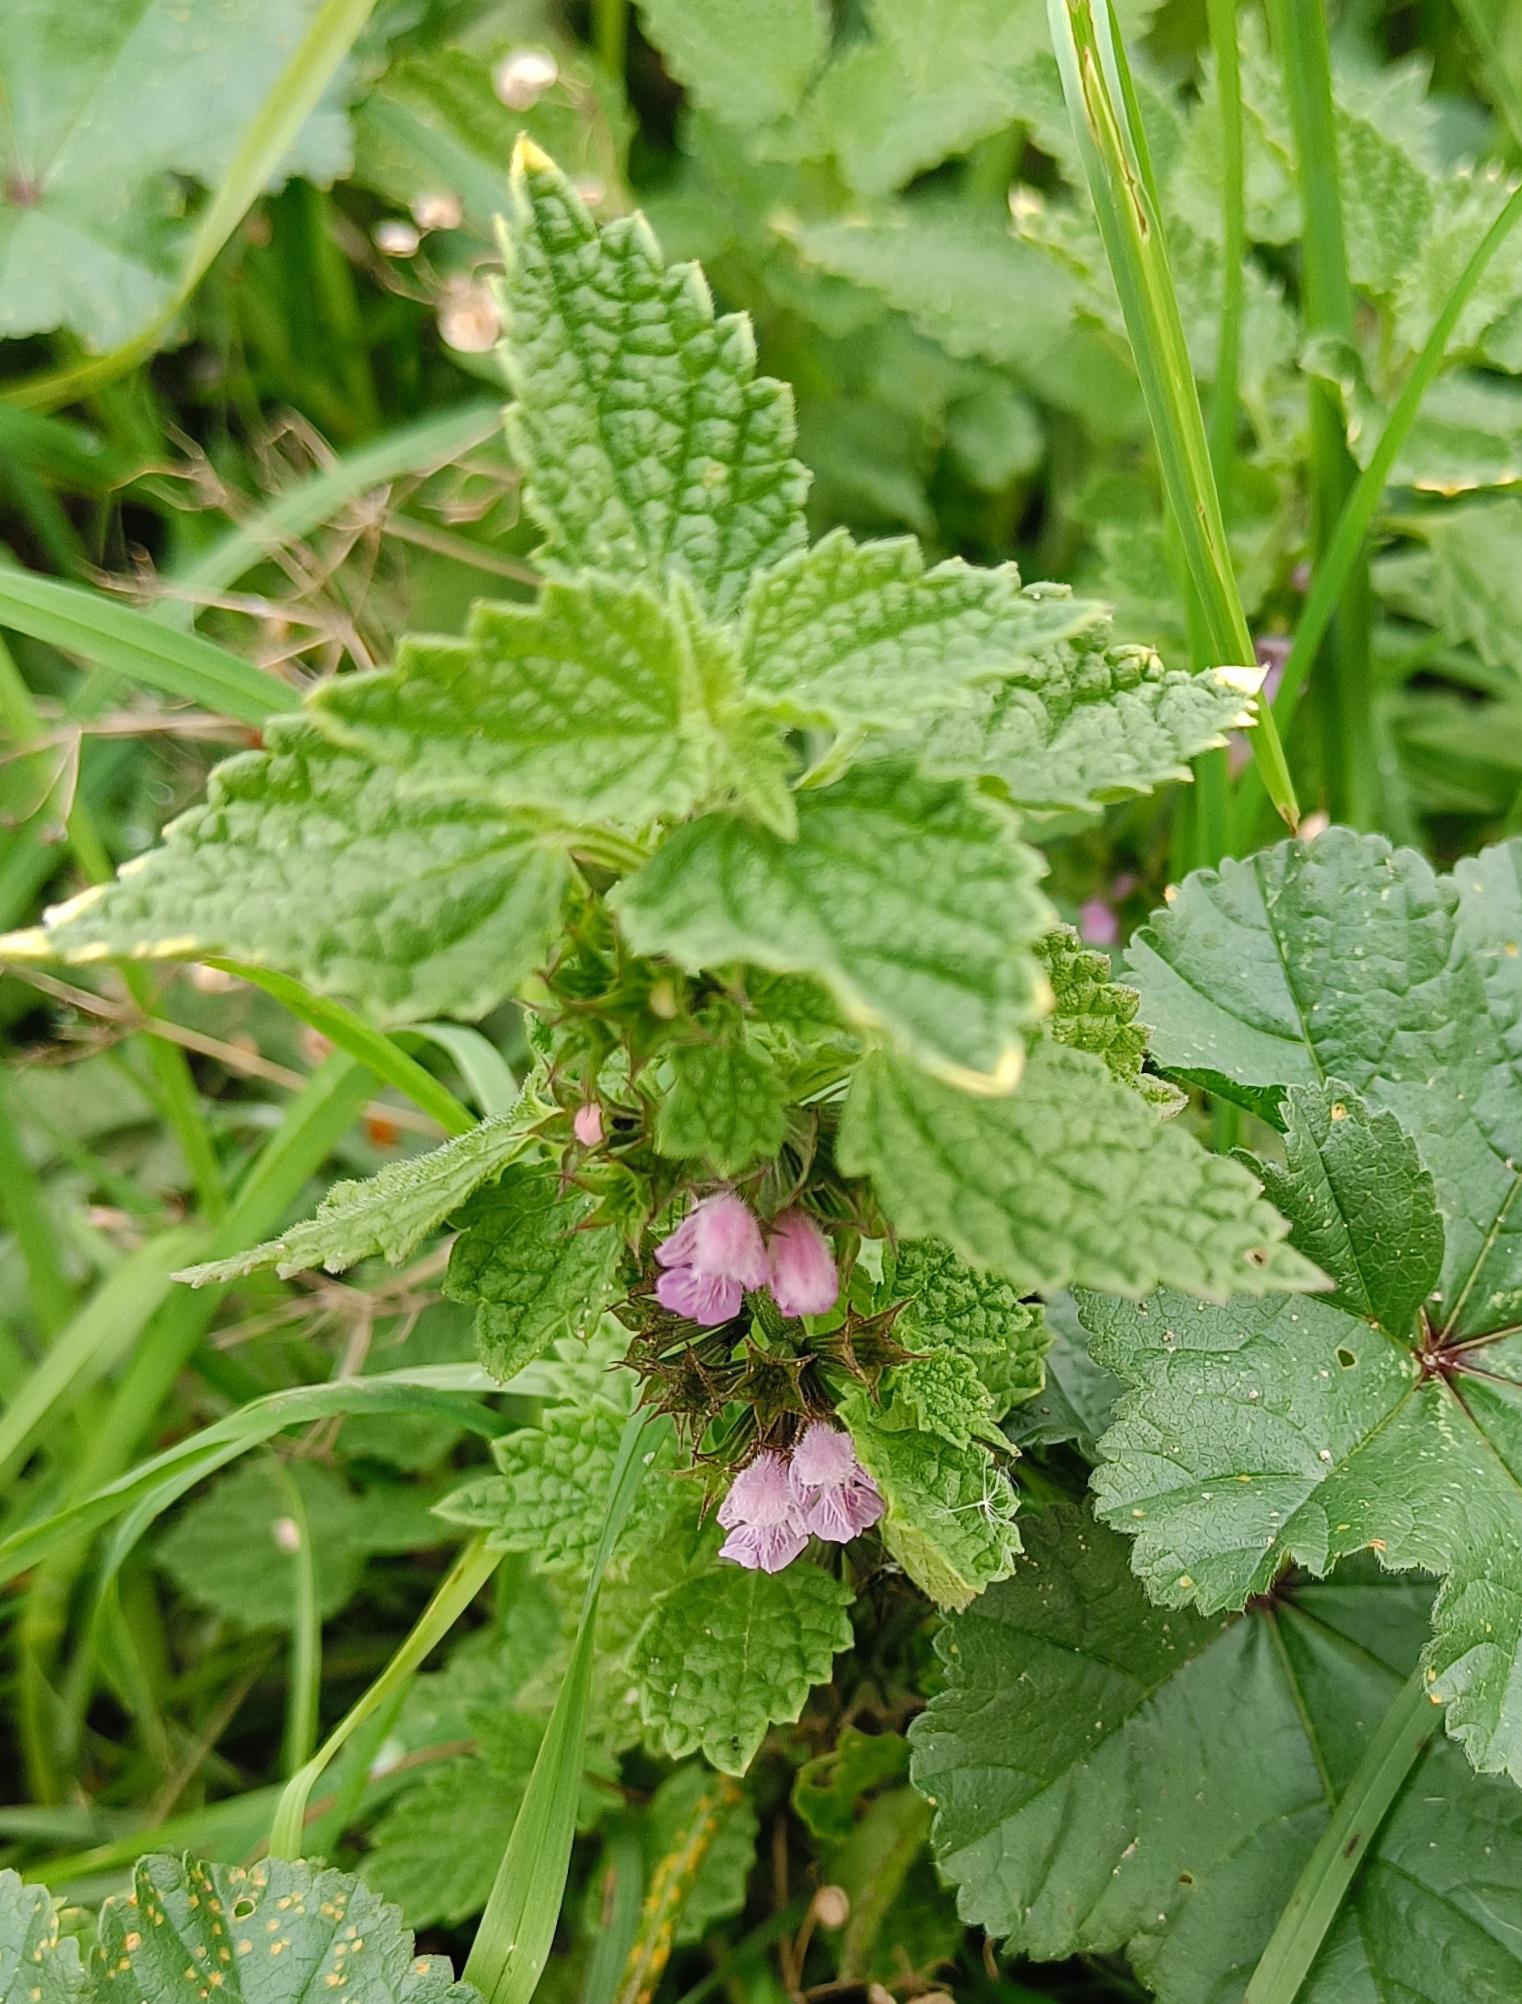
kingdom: Plantae
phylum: Tracheophyta
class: Magnoliopsida
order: Lamiales
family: Lamiaceae
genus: Ballota
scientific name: Ballota nigra
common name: Tandbæger
